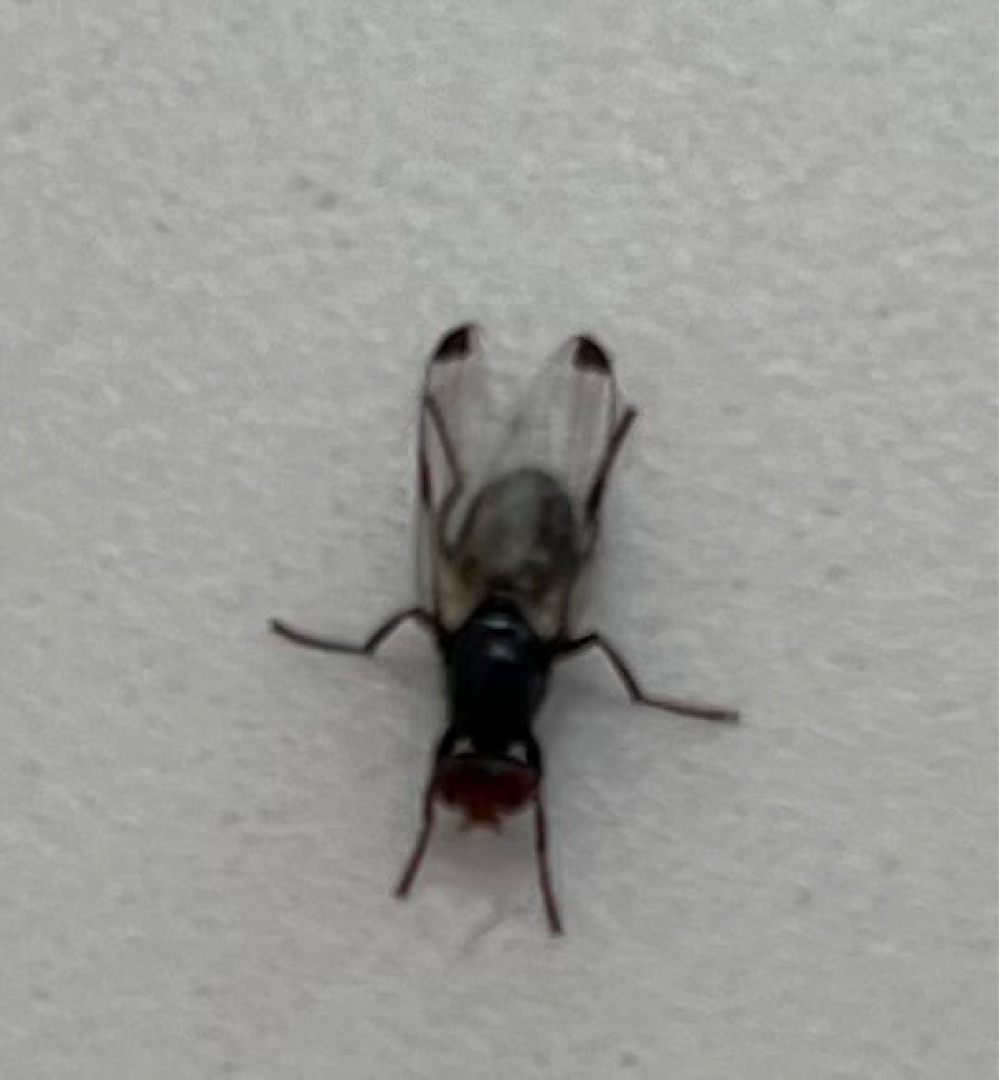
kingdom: Animalia
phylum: Arthropoda
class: Insecta
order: Diptera
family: Ulidiidae
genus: Seioptera
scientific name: Seioptera vibrans
